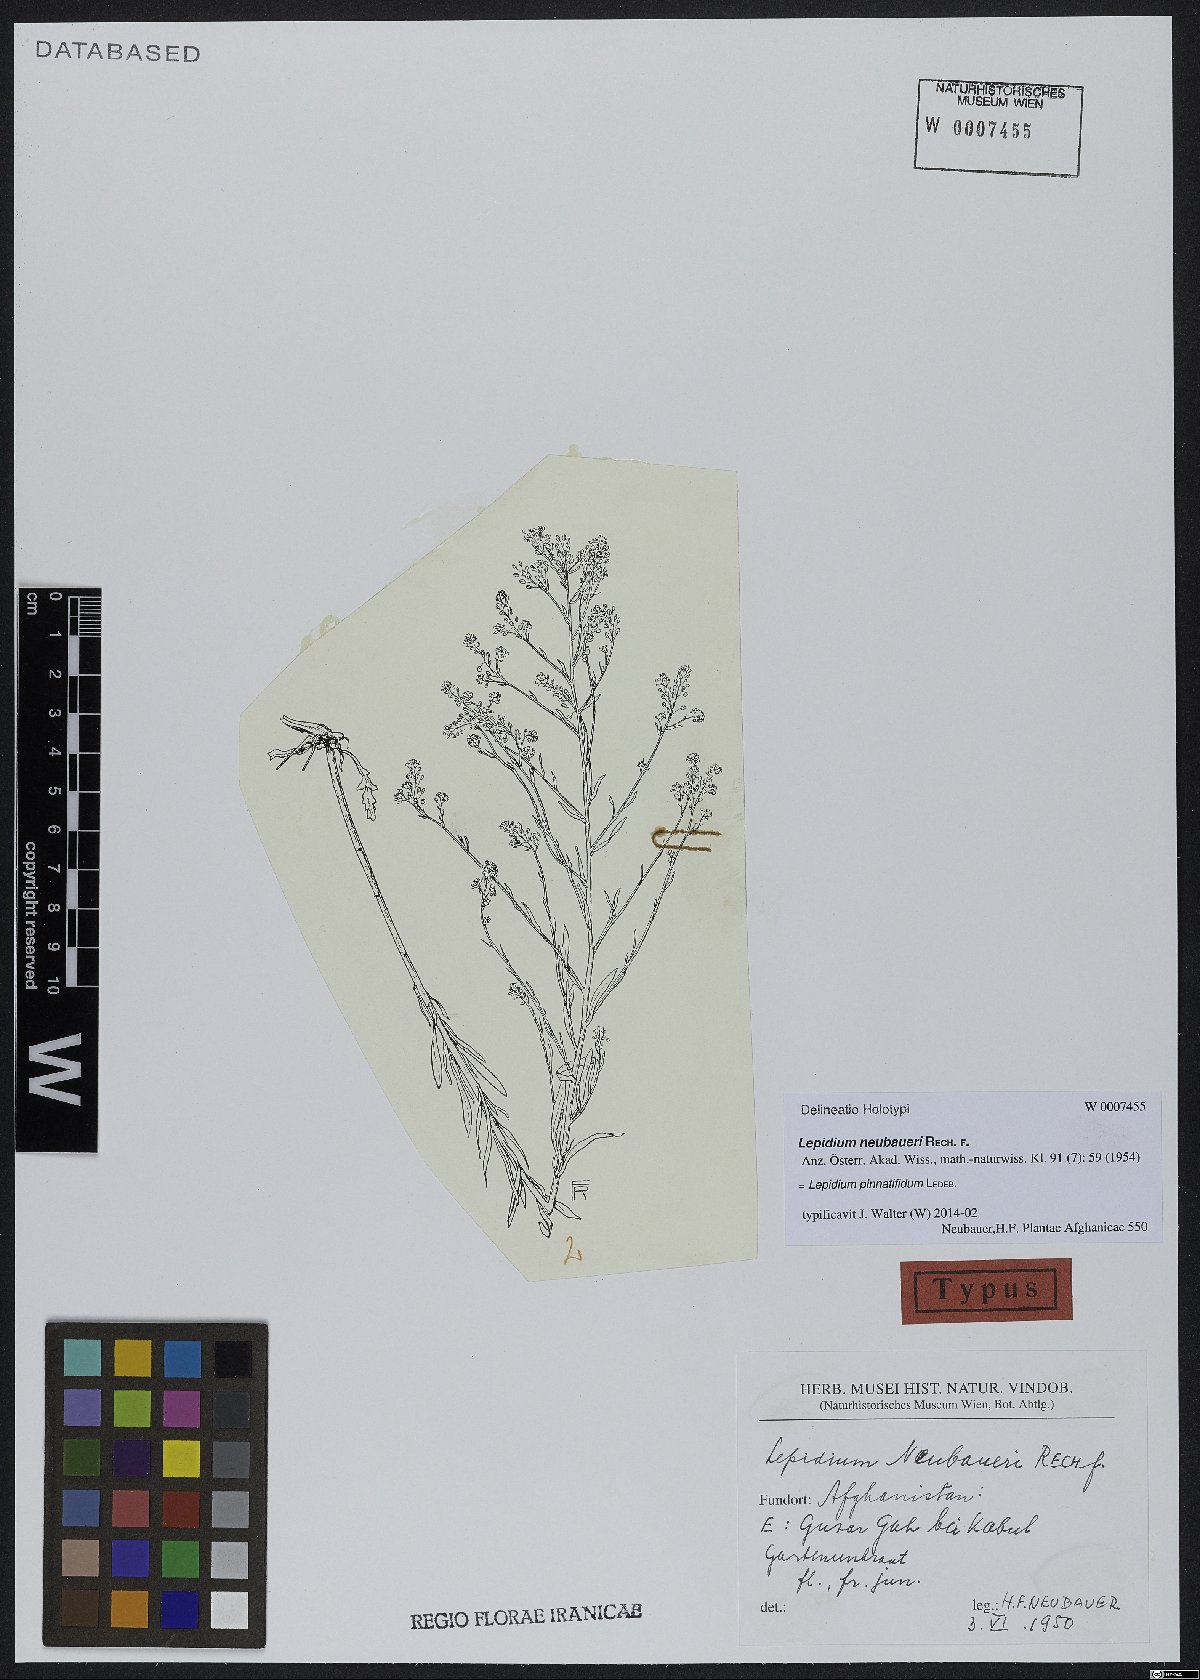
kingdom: Plantae
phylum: Tracheophyta
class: Magnoliopsida
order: Brassicales
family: Brassicaceae
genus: Lepidium
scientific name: Lepidium pinnatifidum
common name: Featherleaf pepperweed
